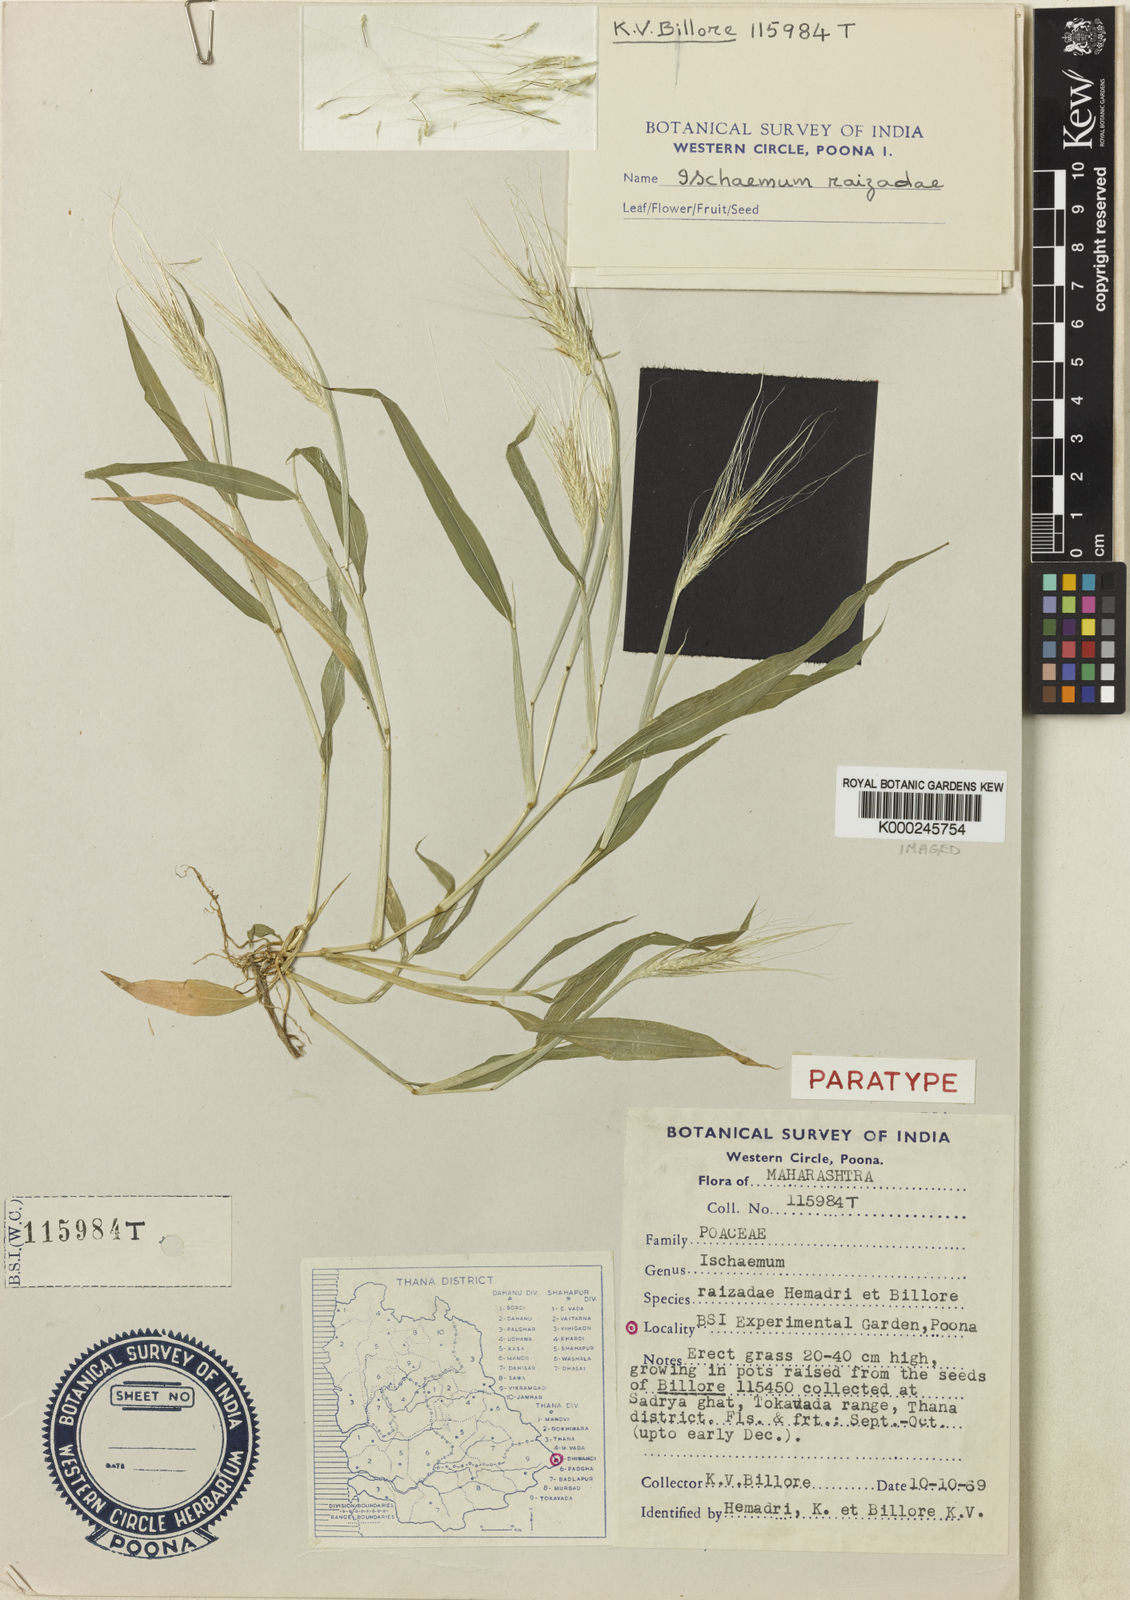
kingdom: Plantae
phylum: Tracheophyta
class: Liliopsida
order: Poales
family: Poaceae
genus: Ischaemum
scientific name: Ischaemum kingii
